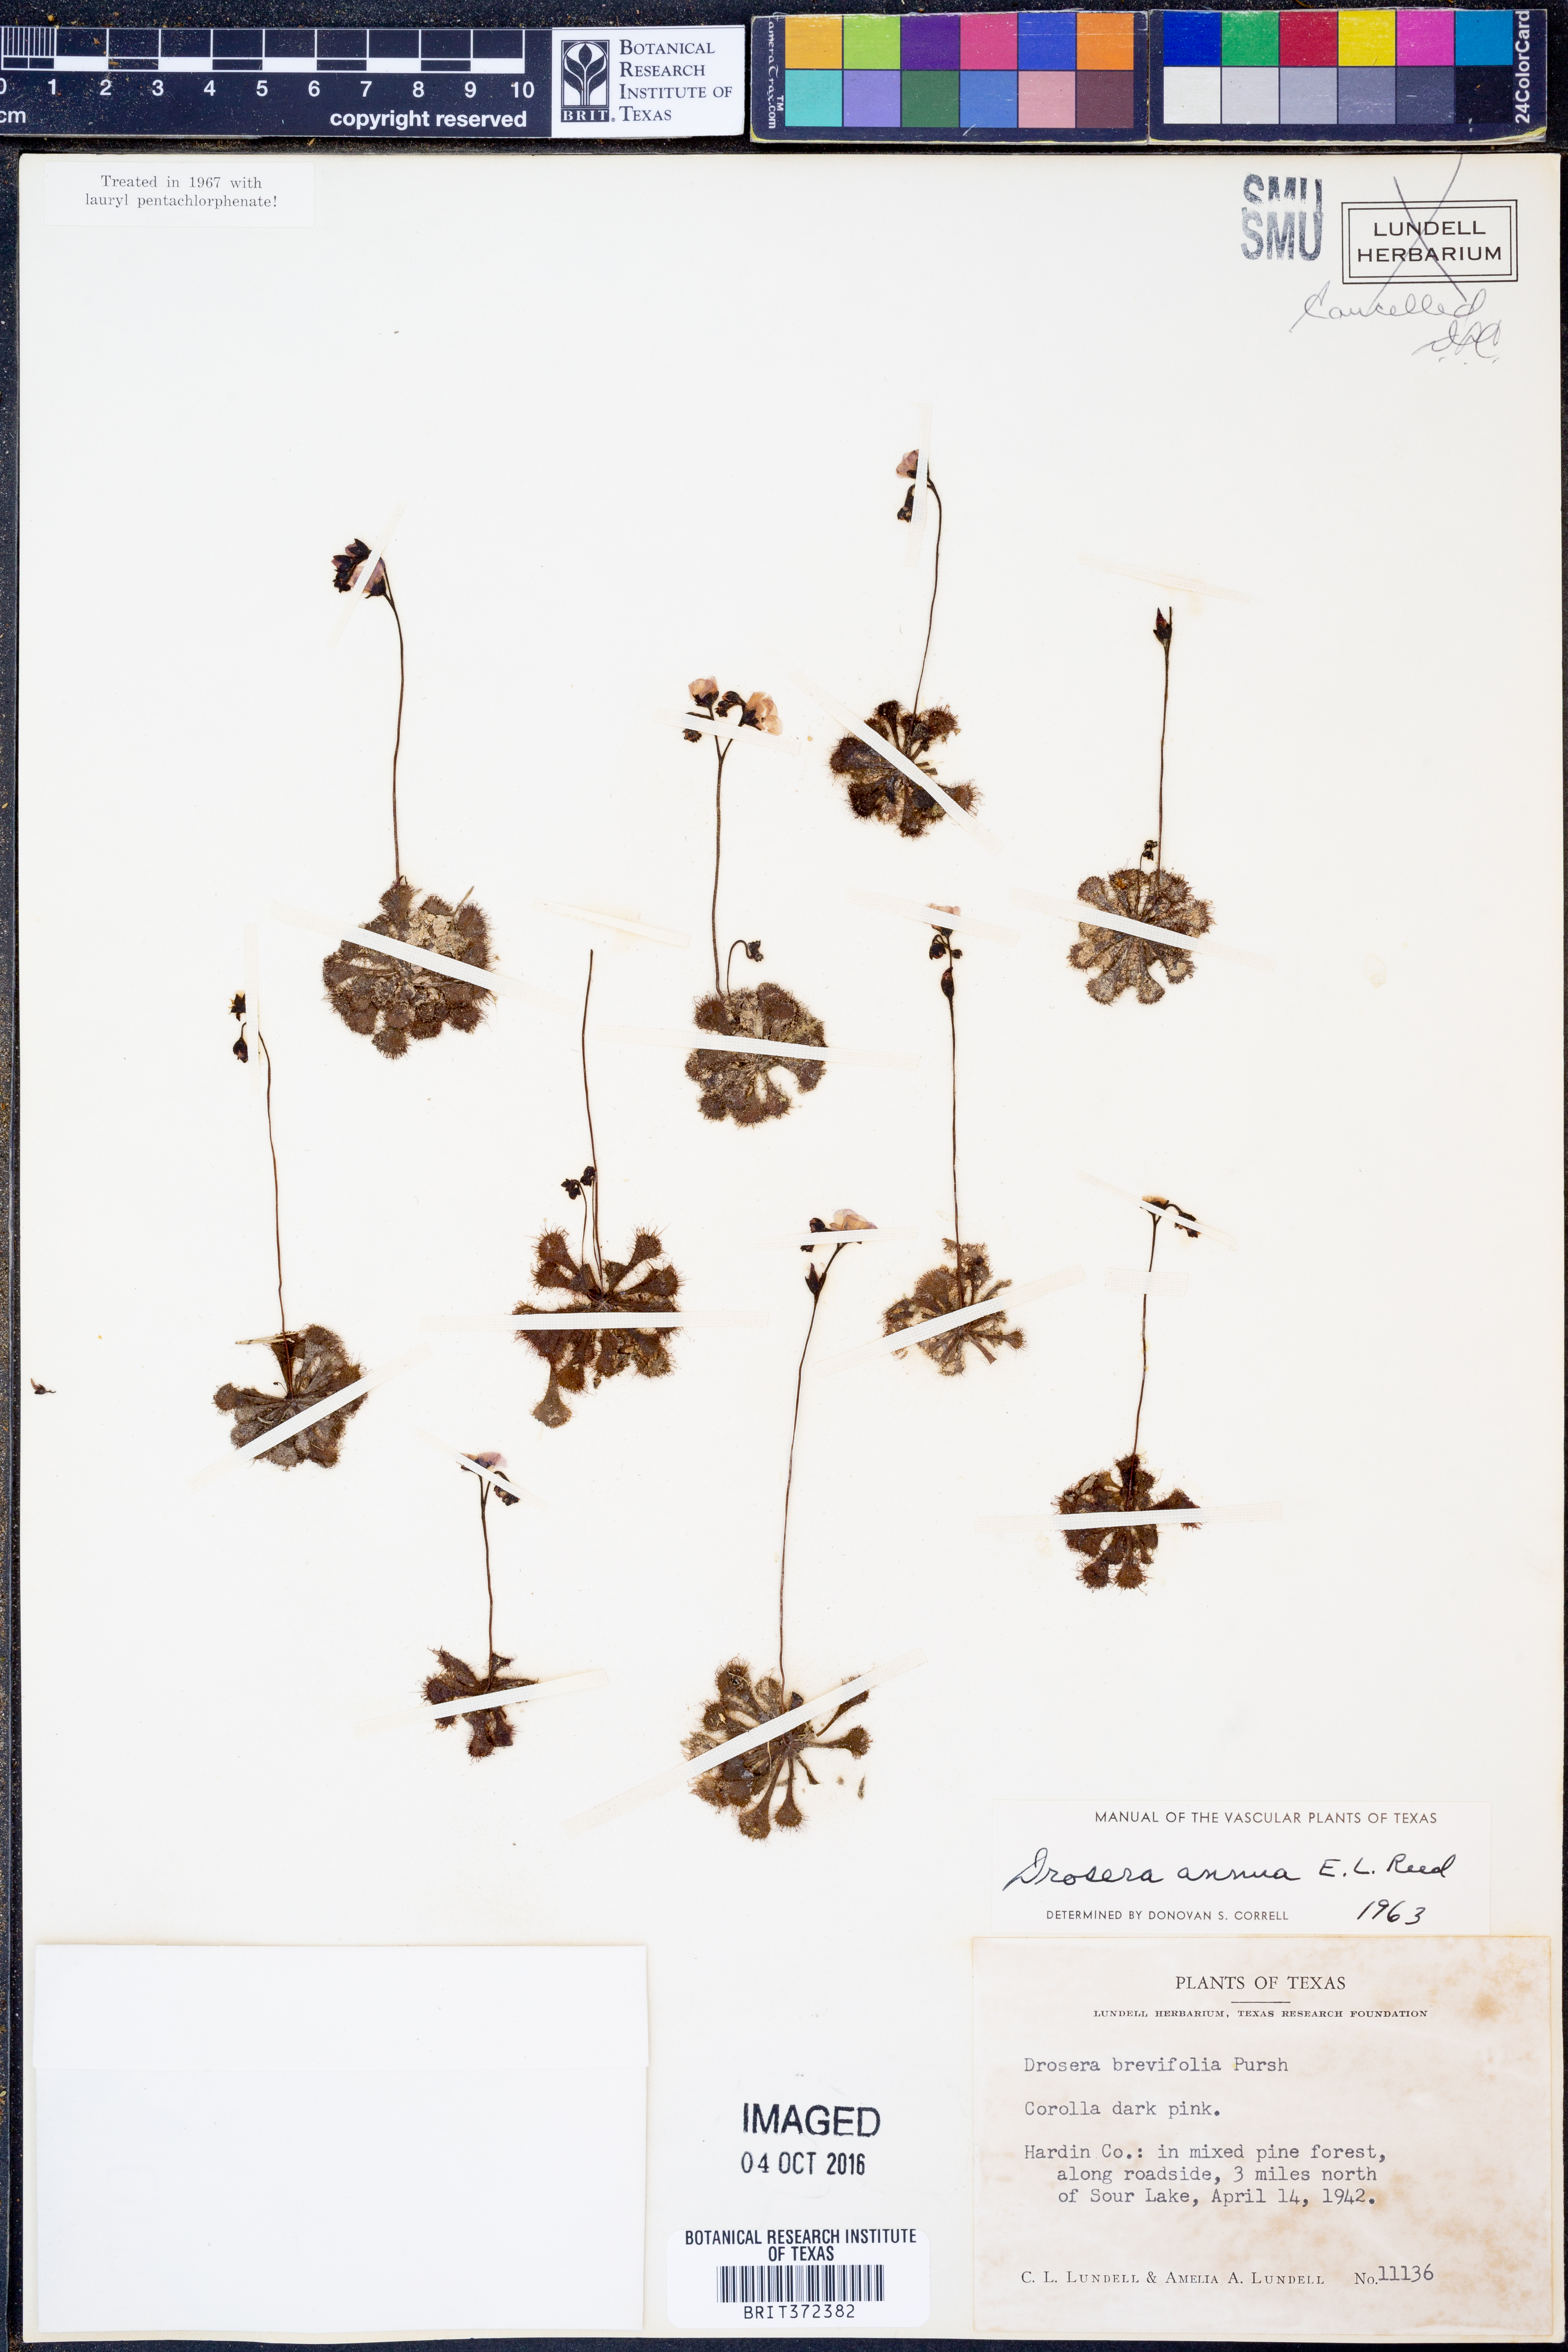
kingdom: Plantae
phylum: Tracheophyta
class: Magnoliopsida
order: Caryophyllales
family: Droseraceae
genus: Drosera
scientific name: Drosera brevifolia
